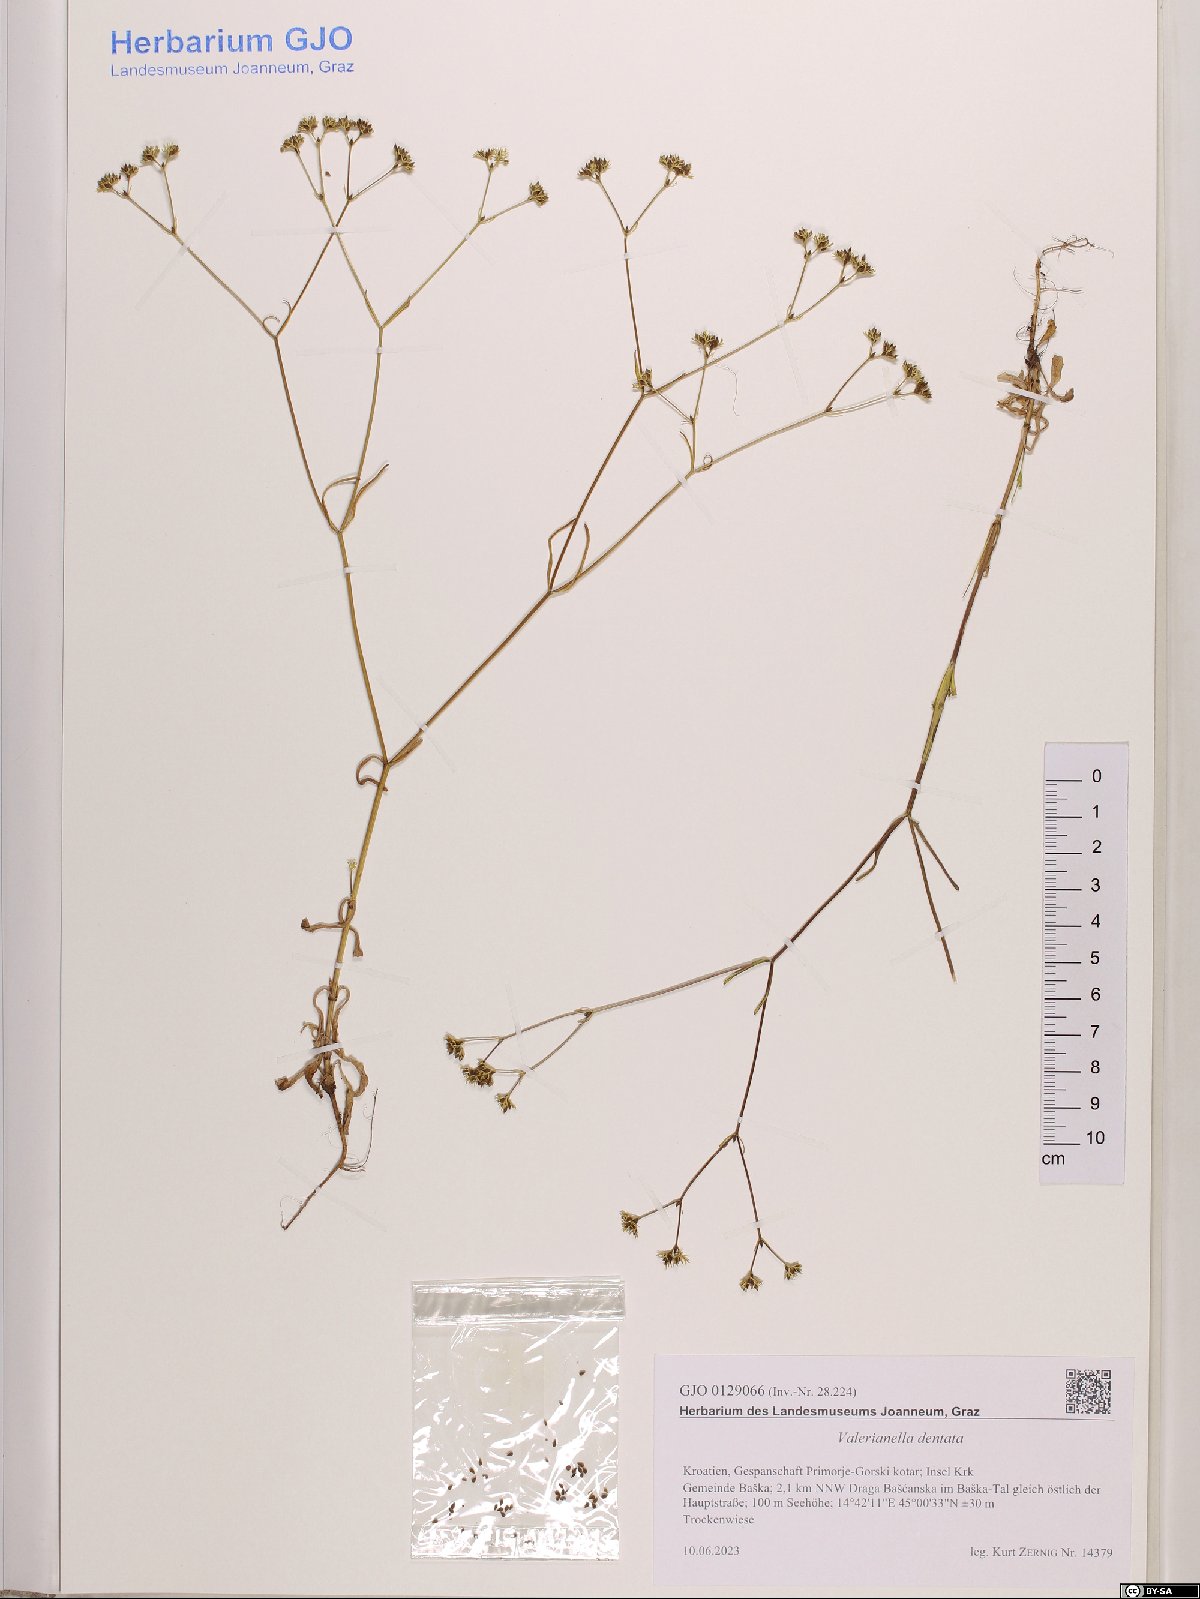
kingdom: Plantae
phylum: Tracheophyta
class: Magnoliopsida
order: Dipsacales
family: Caprifoliaceae
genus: Valerianella
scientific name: Valerianella dentata
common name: Narrow-fruited cornsalad
